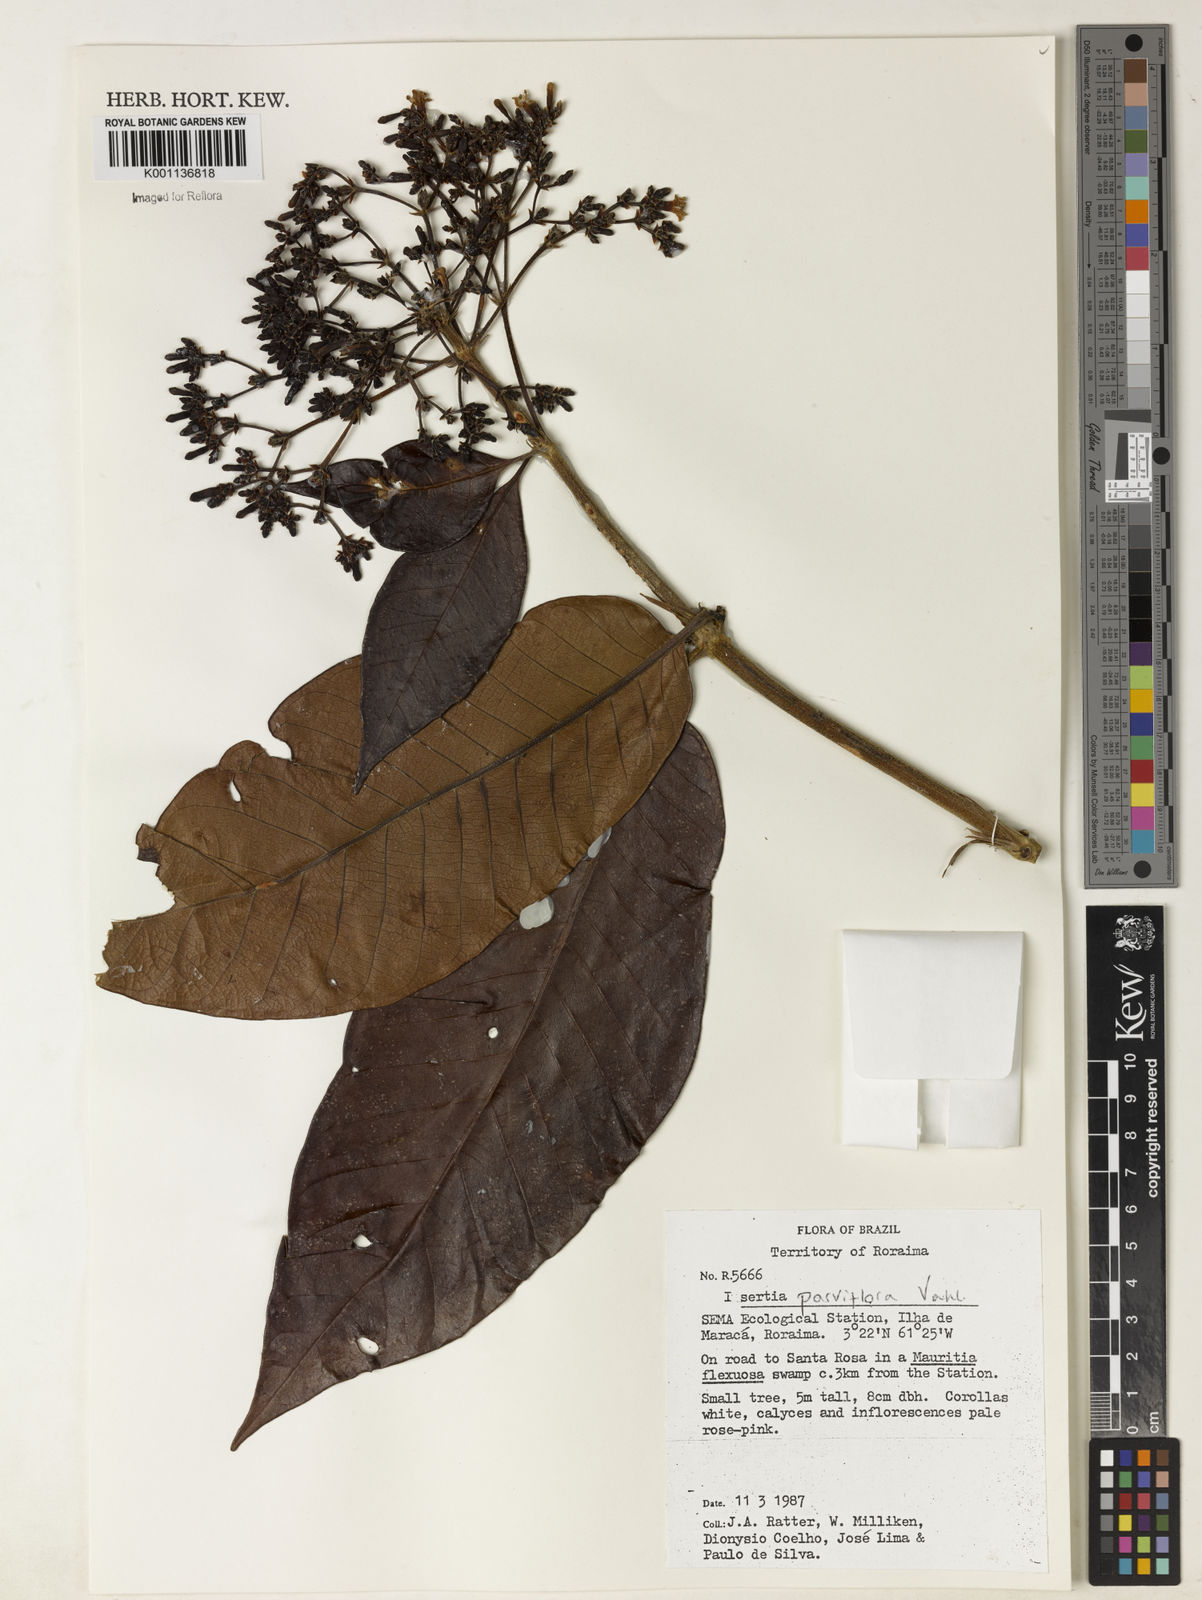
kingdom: Plantae
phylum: Tracheophyta
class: Magnoliopsida
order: Gentianales
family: Rubiaceae
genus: Isertia
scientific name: Isertia parviflora
